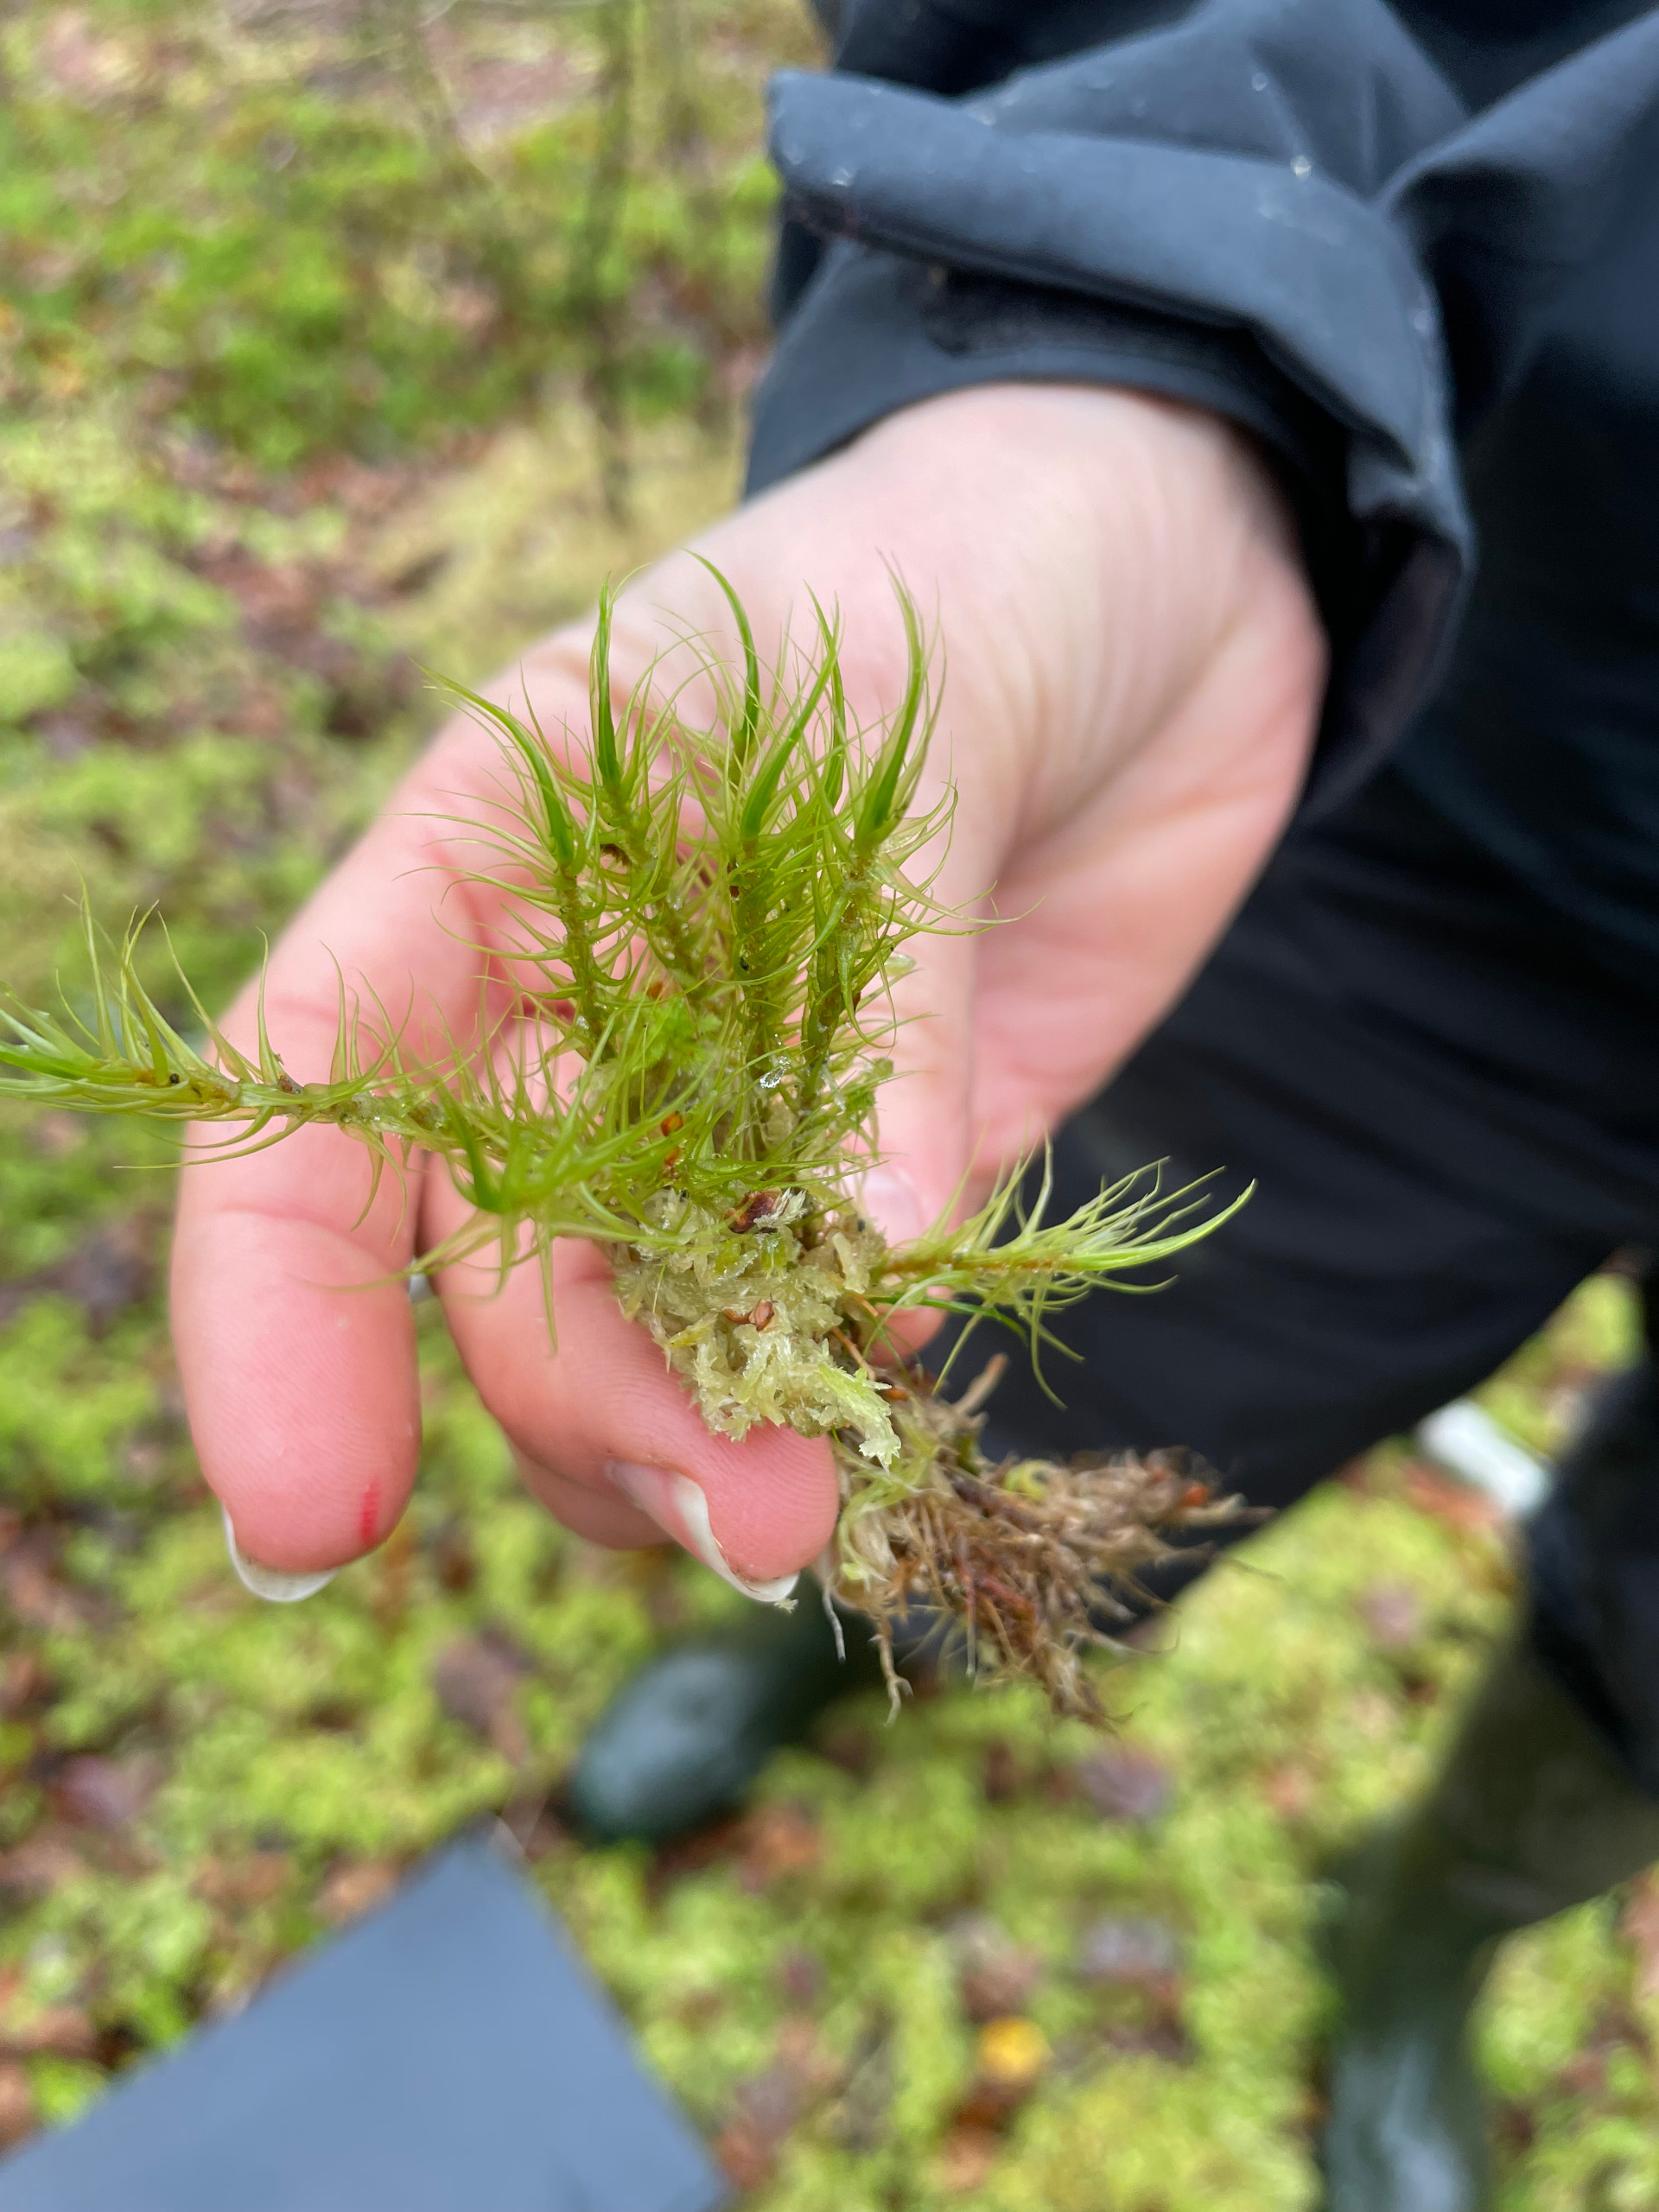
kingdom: Plantae
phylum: Bryophyta
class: Bryopsida
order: Dicranales
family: Dicranaceae
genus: Dicranum
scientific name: Dicranum
